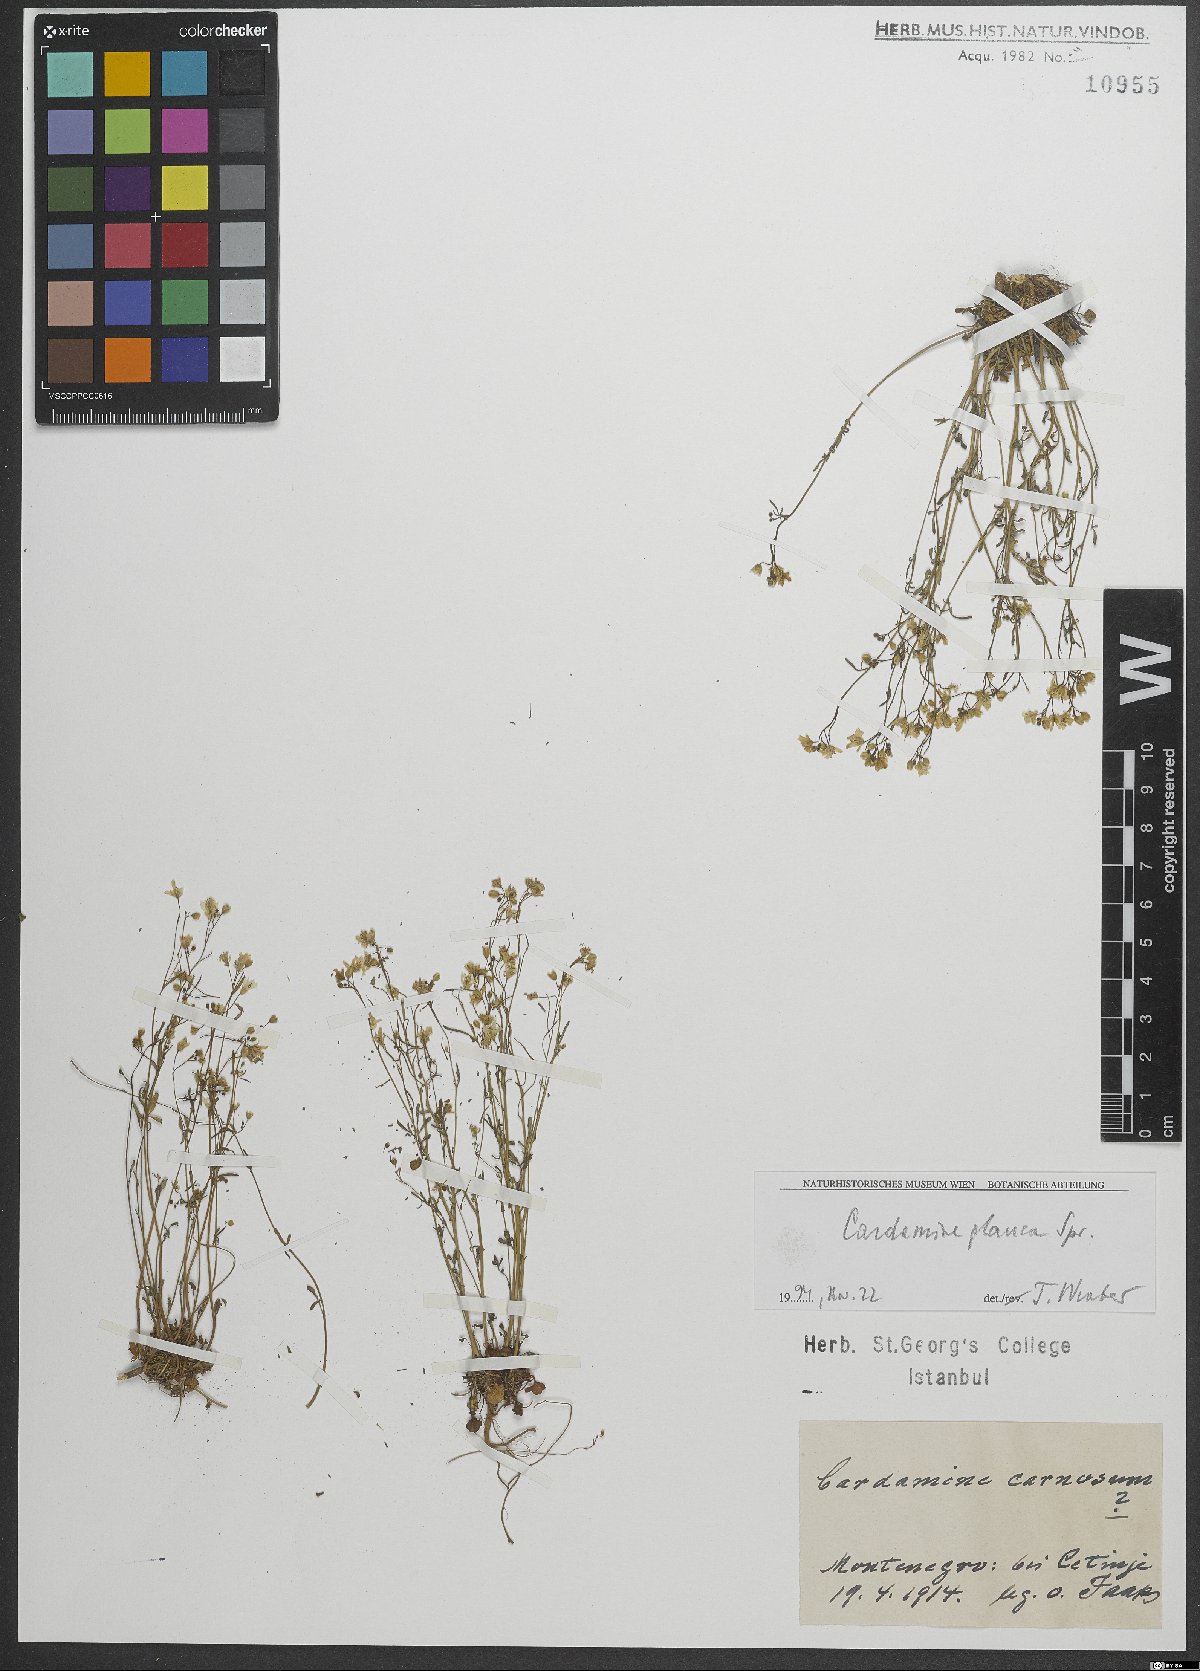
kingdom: Plantae
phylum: Tracheophyta
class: Magnoliopsida
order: Brassicales
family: Brassicaceae
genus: Cardamine
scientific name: Cardamine glauca
